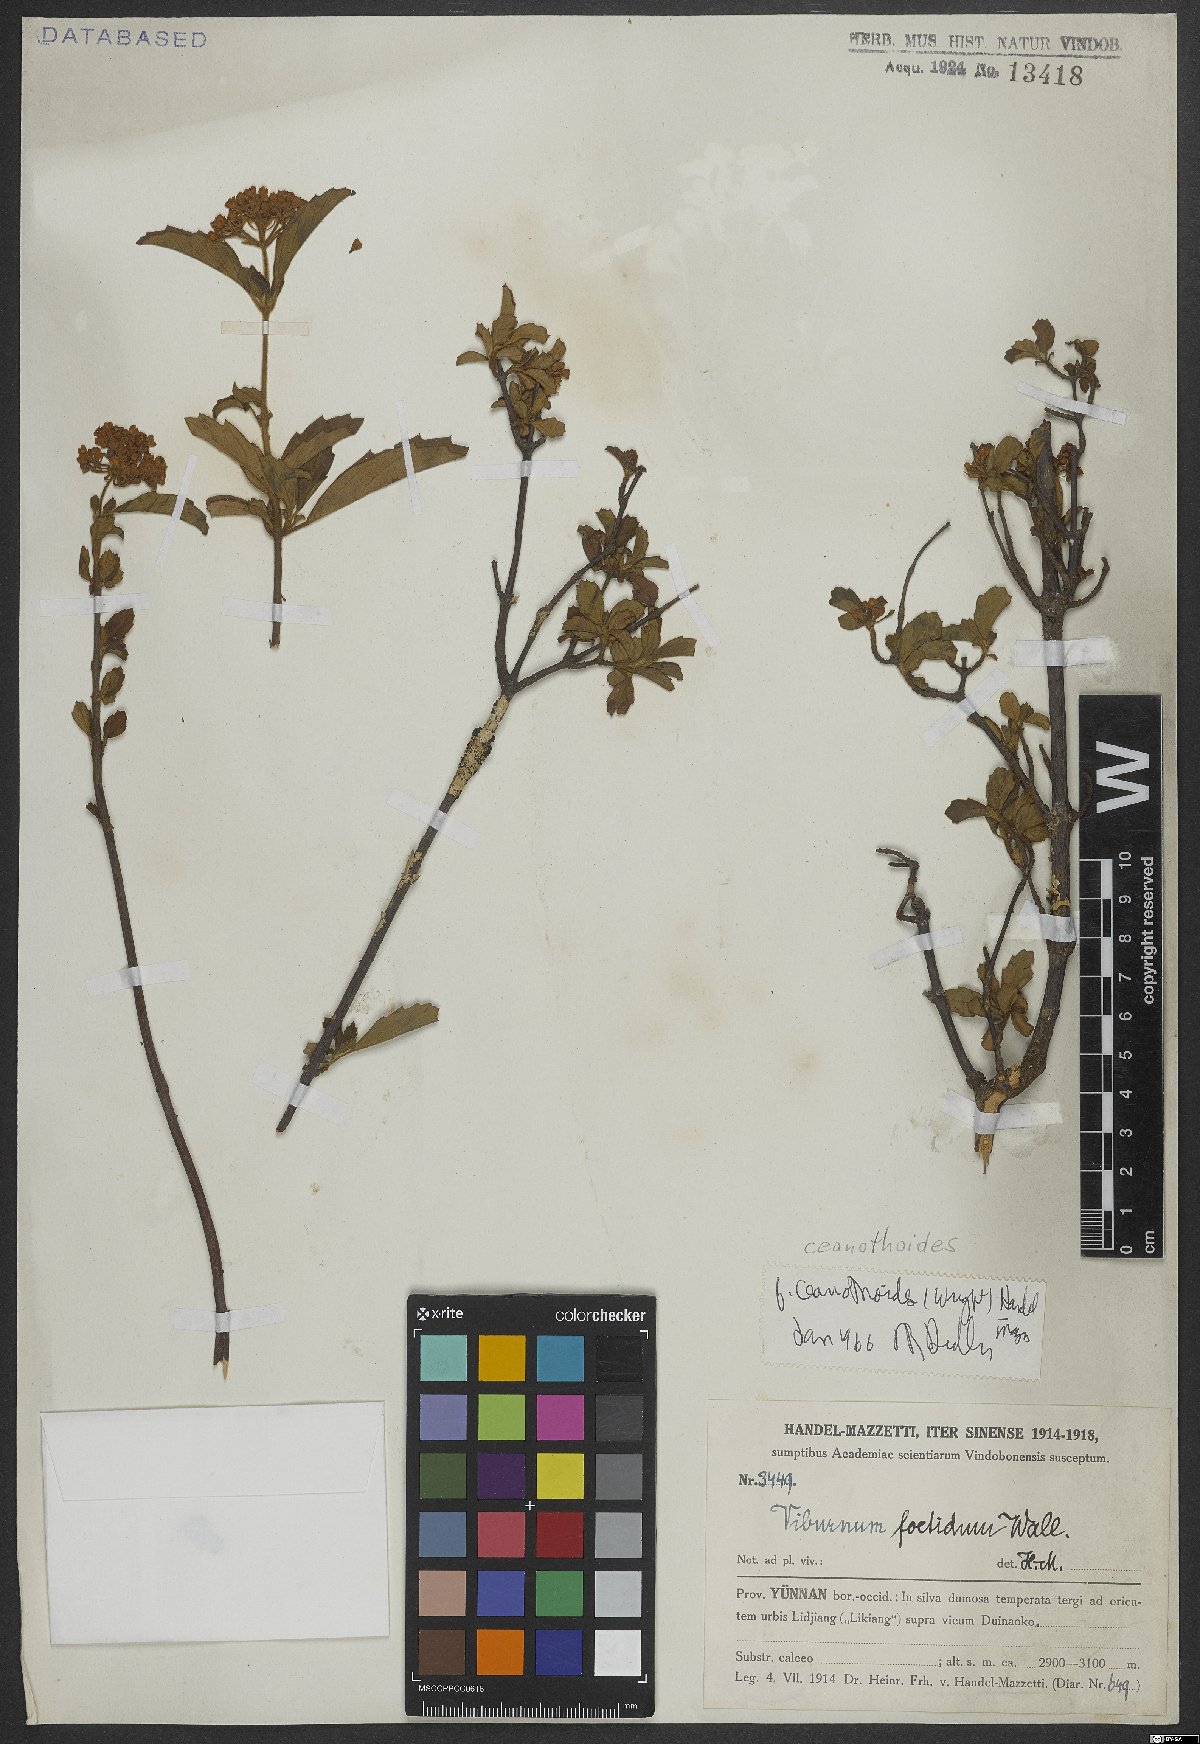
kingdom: Plantae
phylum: Tracheophyta
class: Magnoliopsida
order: Dipsacales
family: Viburnaceae
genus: Viburnum
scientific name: Viburnum foetidum
